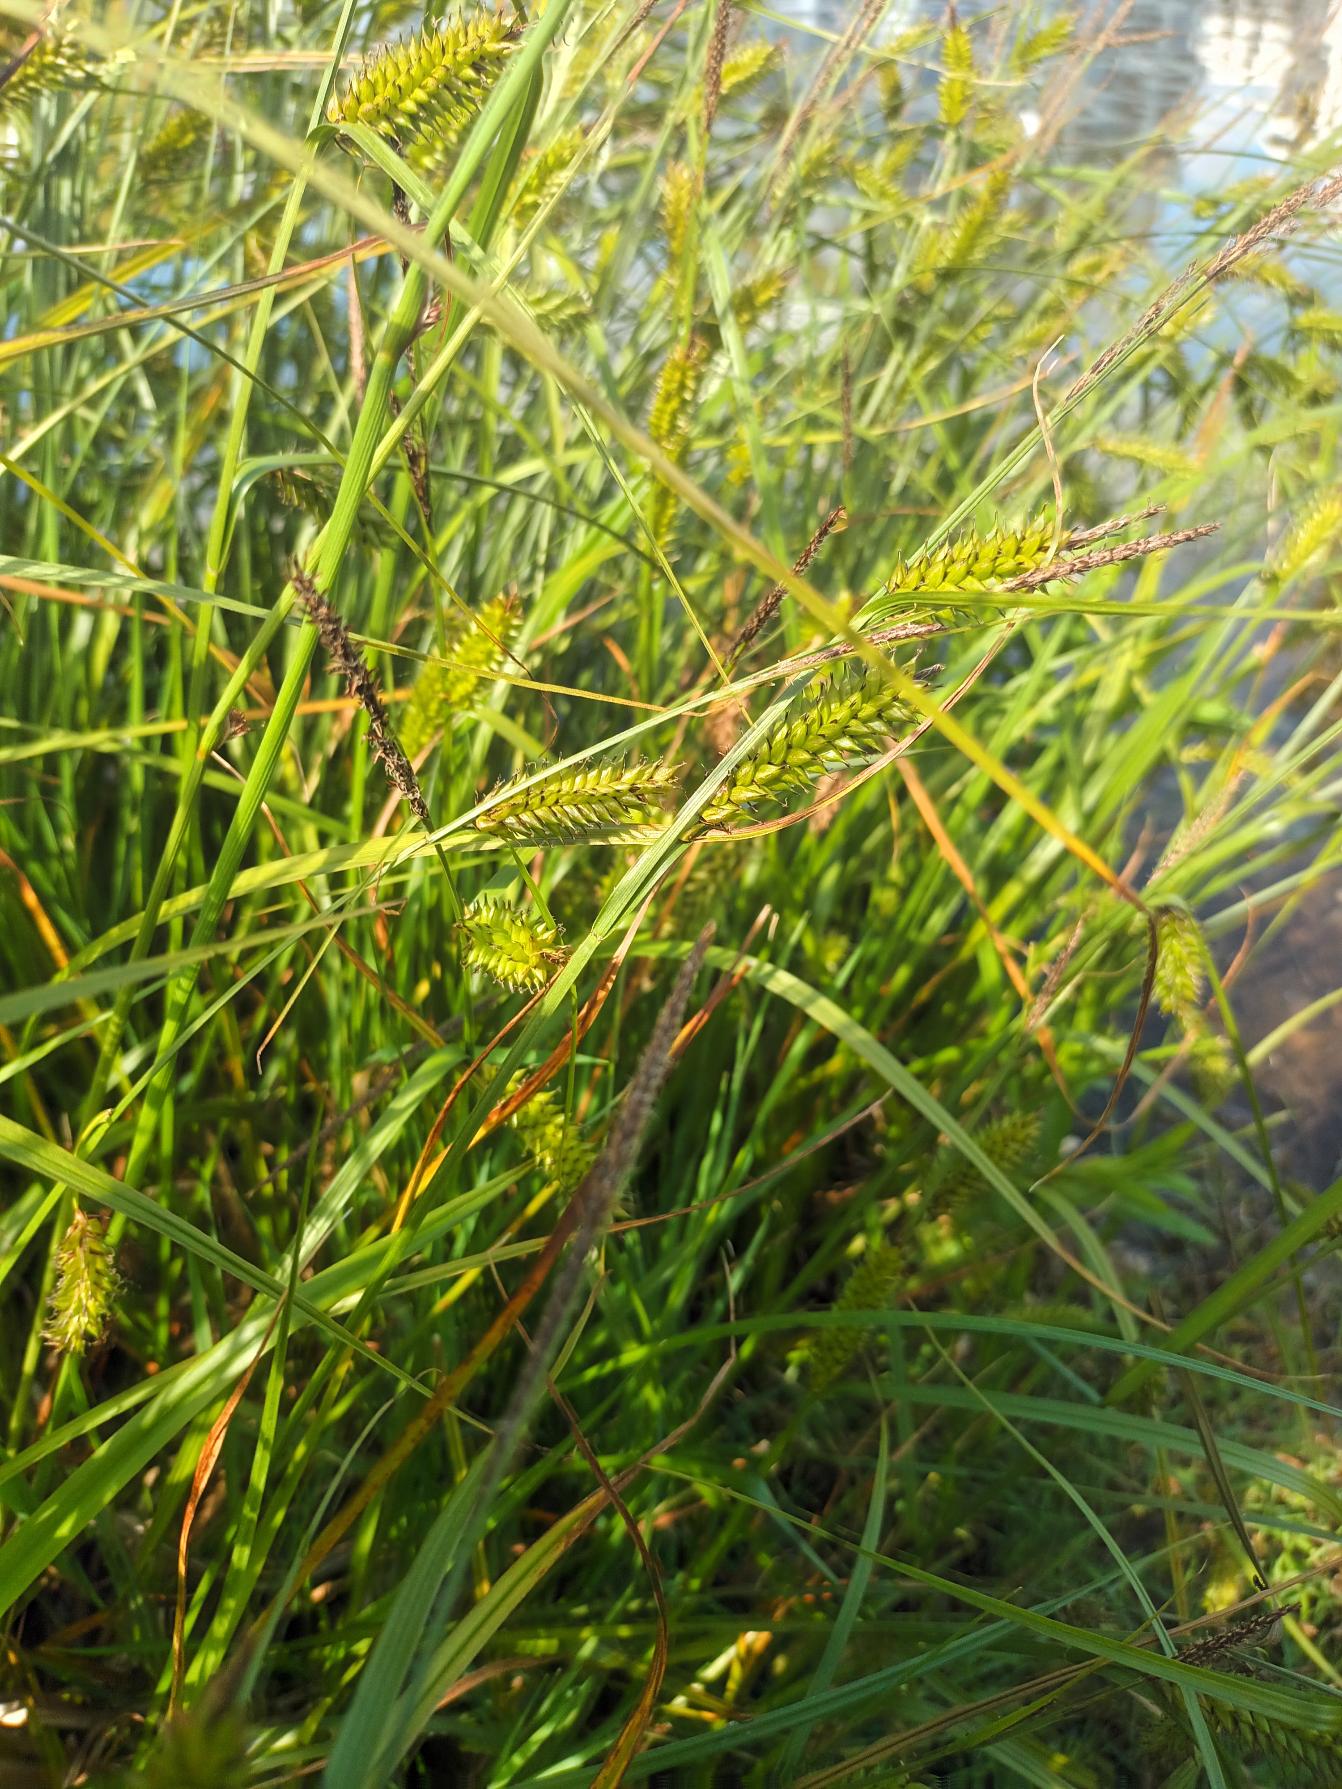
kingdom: Plantae
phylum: Tracheophyta
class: Liliopsida
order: Poales
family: Cyperaceae
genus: Carex
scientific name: Carex vesicaria
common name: Blære-star
